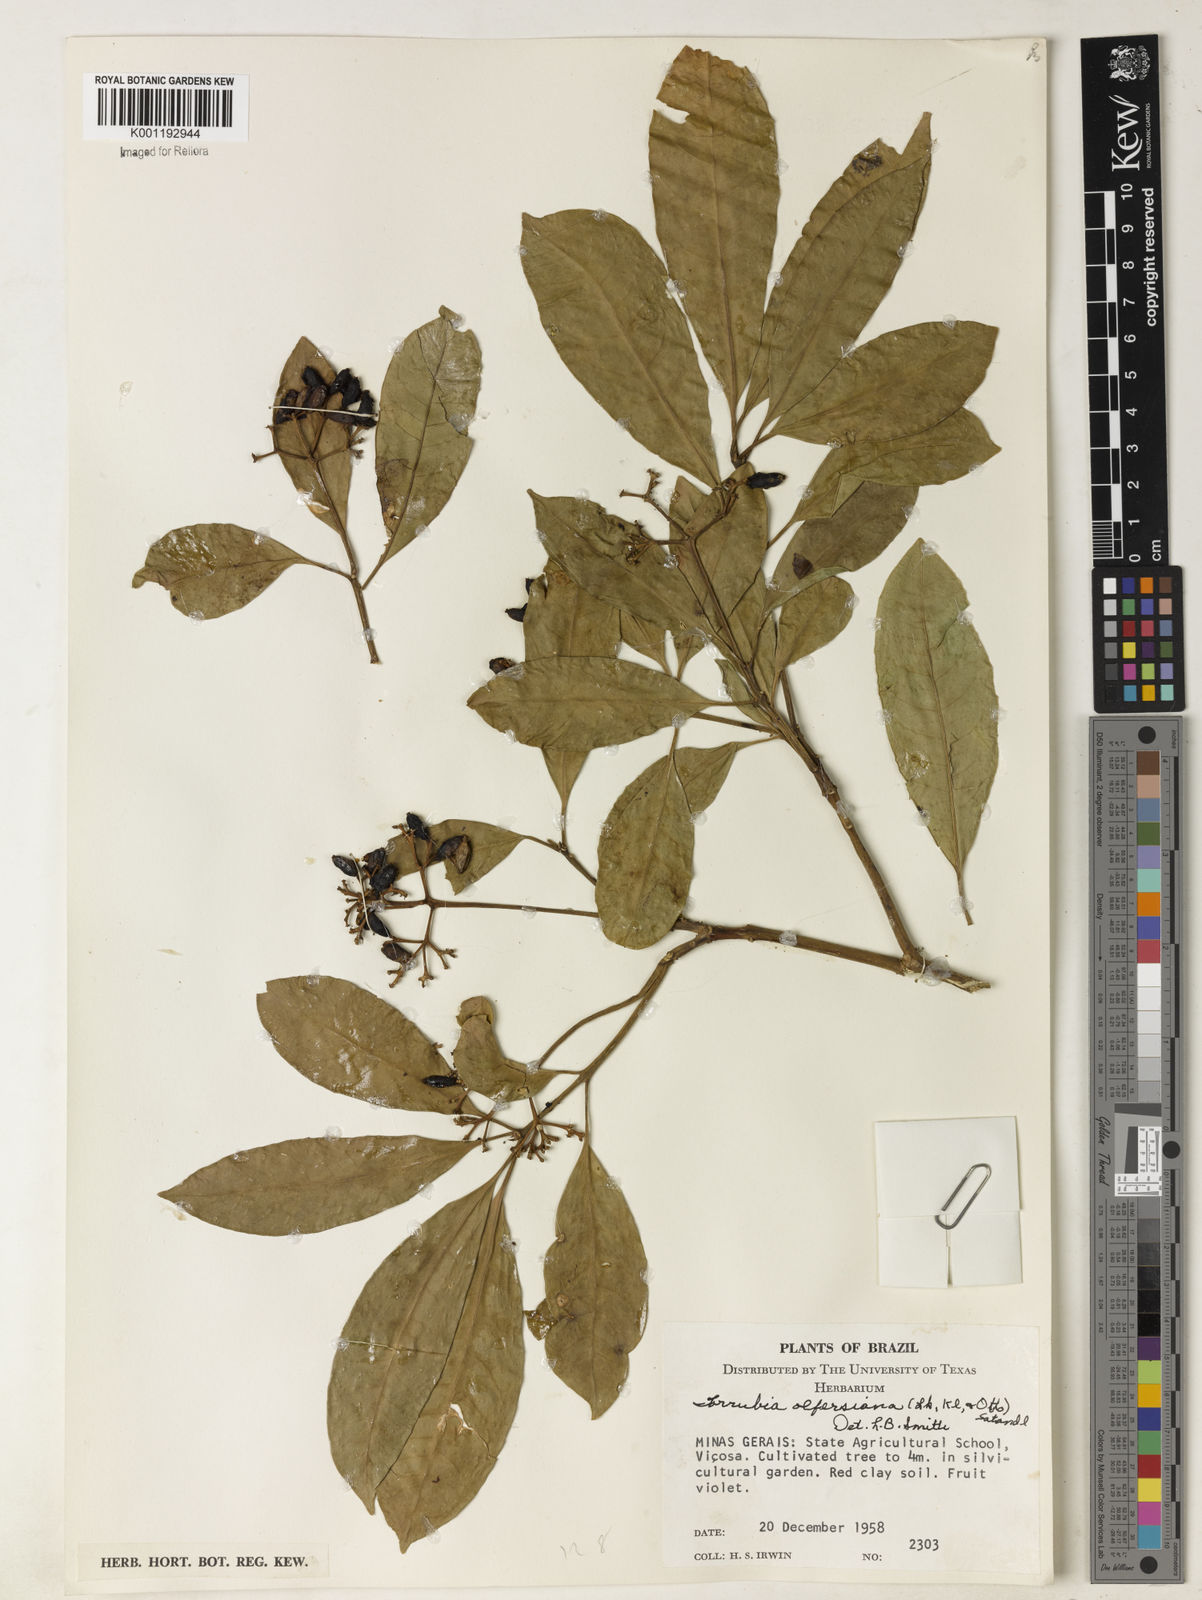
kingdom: Plantae
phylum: Tracheophyta
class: Magnoliopsida
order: Caryophyllales
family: Nyctaginaceae
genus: Guapira
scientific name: Guapira
